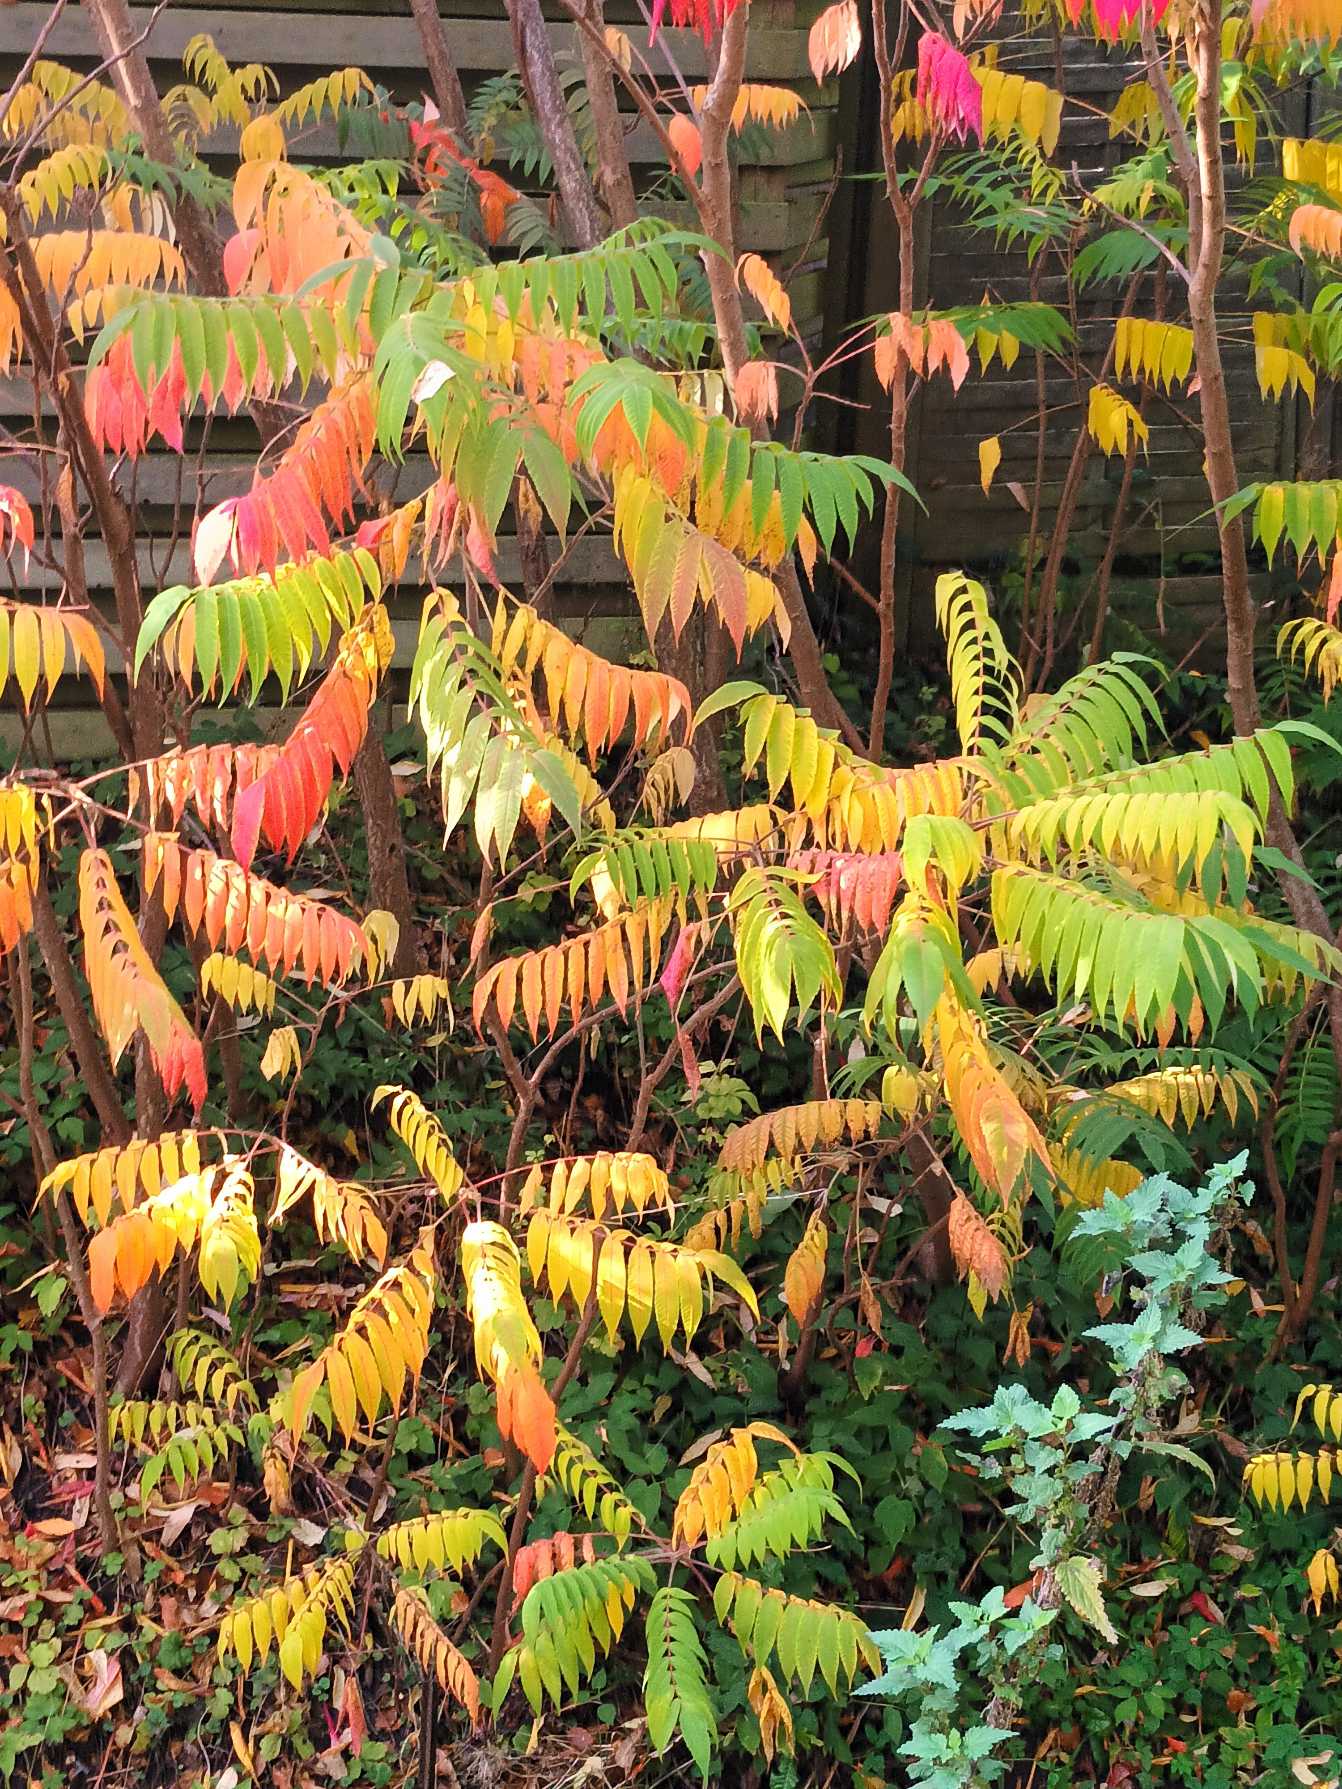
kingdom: Plantae
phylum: Tracheophyta
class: Magnoliopsida
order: Sapindales
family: Anacardiaceae
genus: Rhus
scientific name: Rhus typhina
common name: Hjortetaktræ
